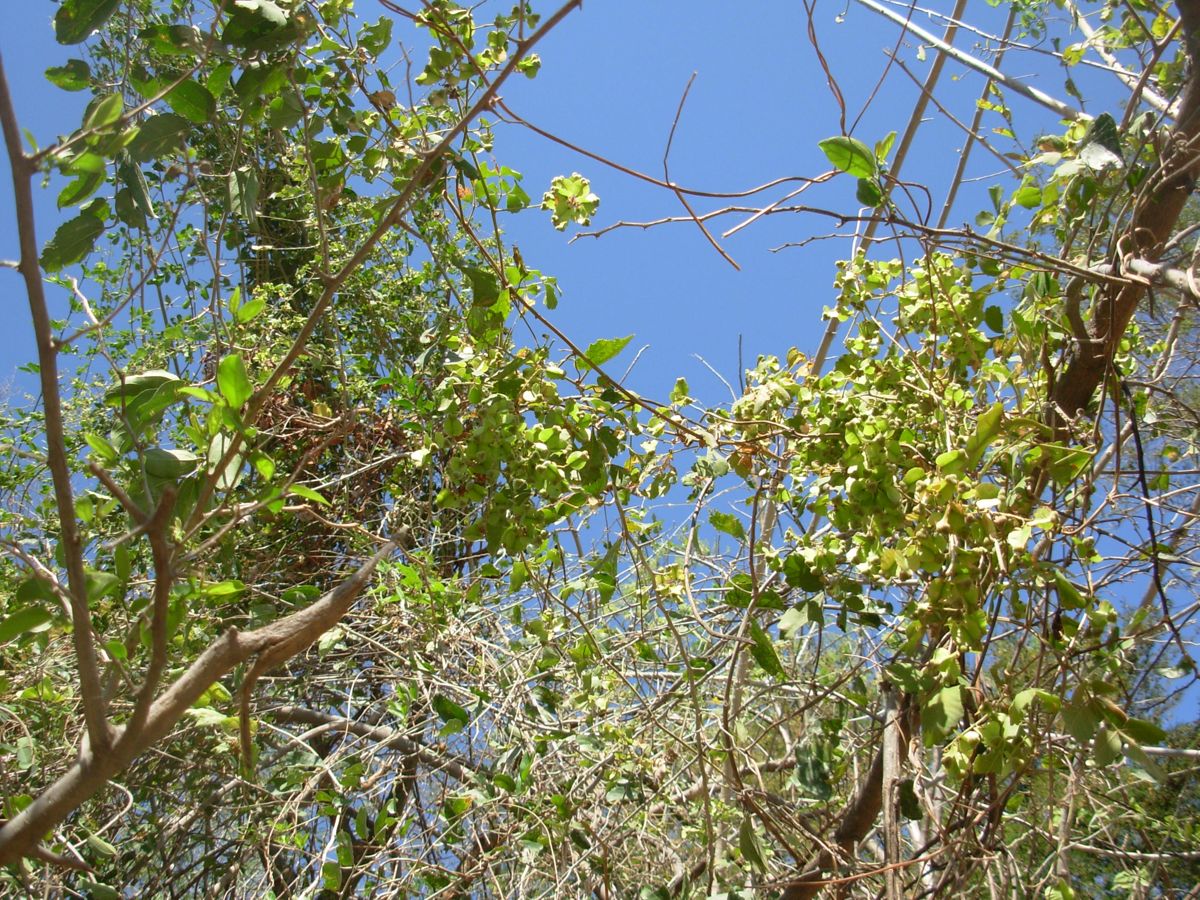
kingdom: Plantae
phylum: Tracheophyta
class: Magnoliopsida
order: Sapindales
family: Sapindaceae
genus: Serjania
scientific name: Serjania triquetra
